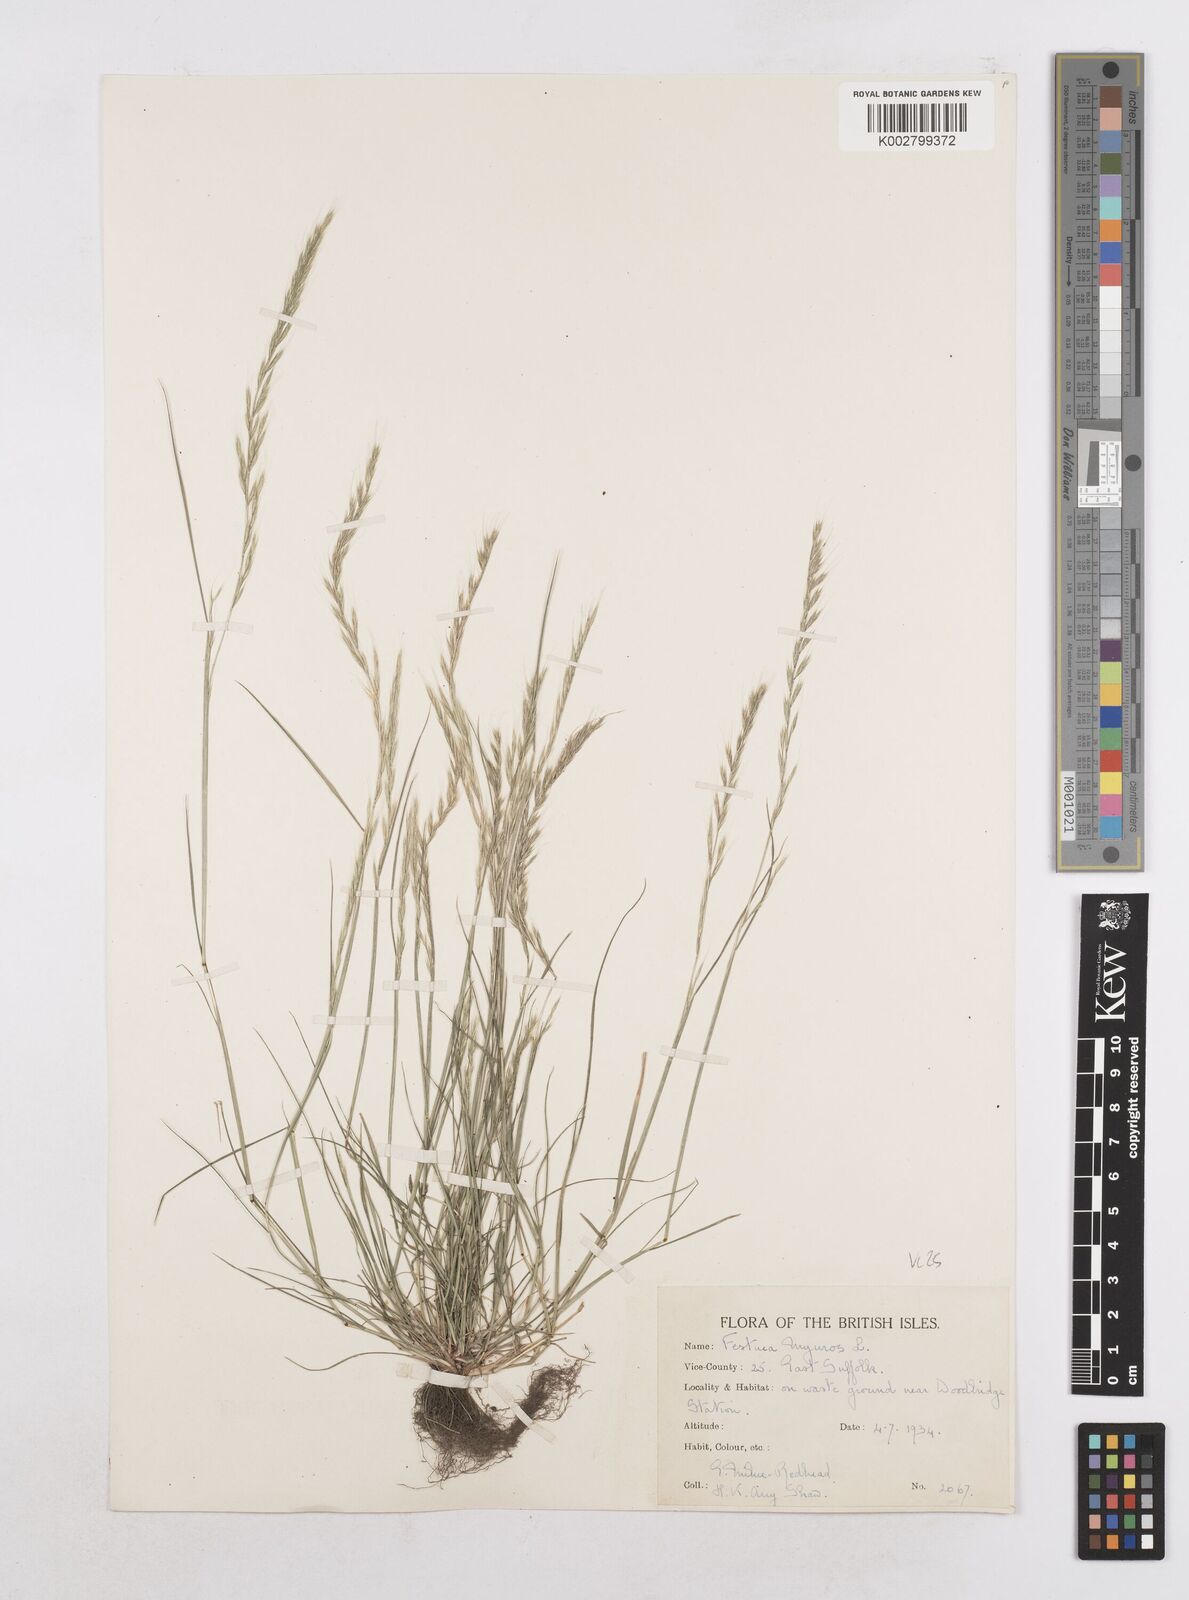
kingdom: Plantae
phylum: Tracheophyta
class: Liliopsida
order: Poales
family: Poaceae
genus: Festuca
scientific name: Festuca myuros
